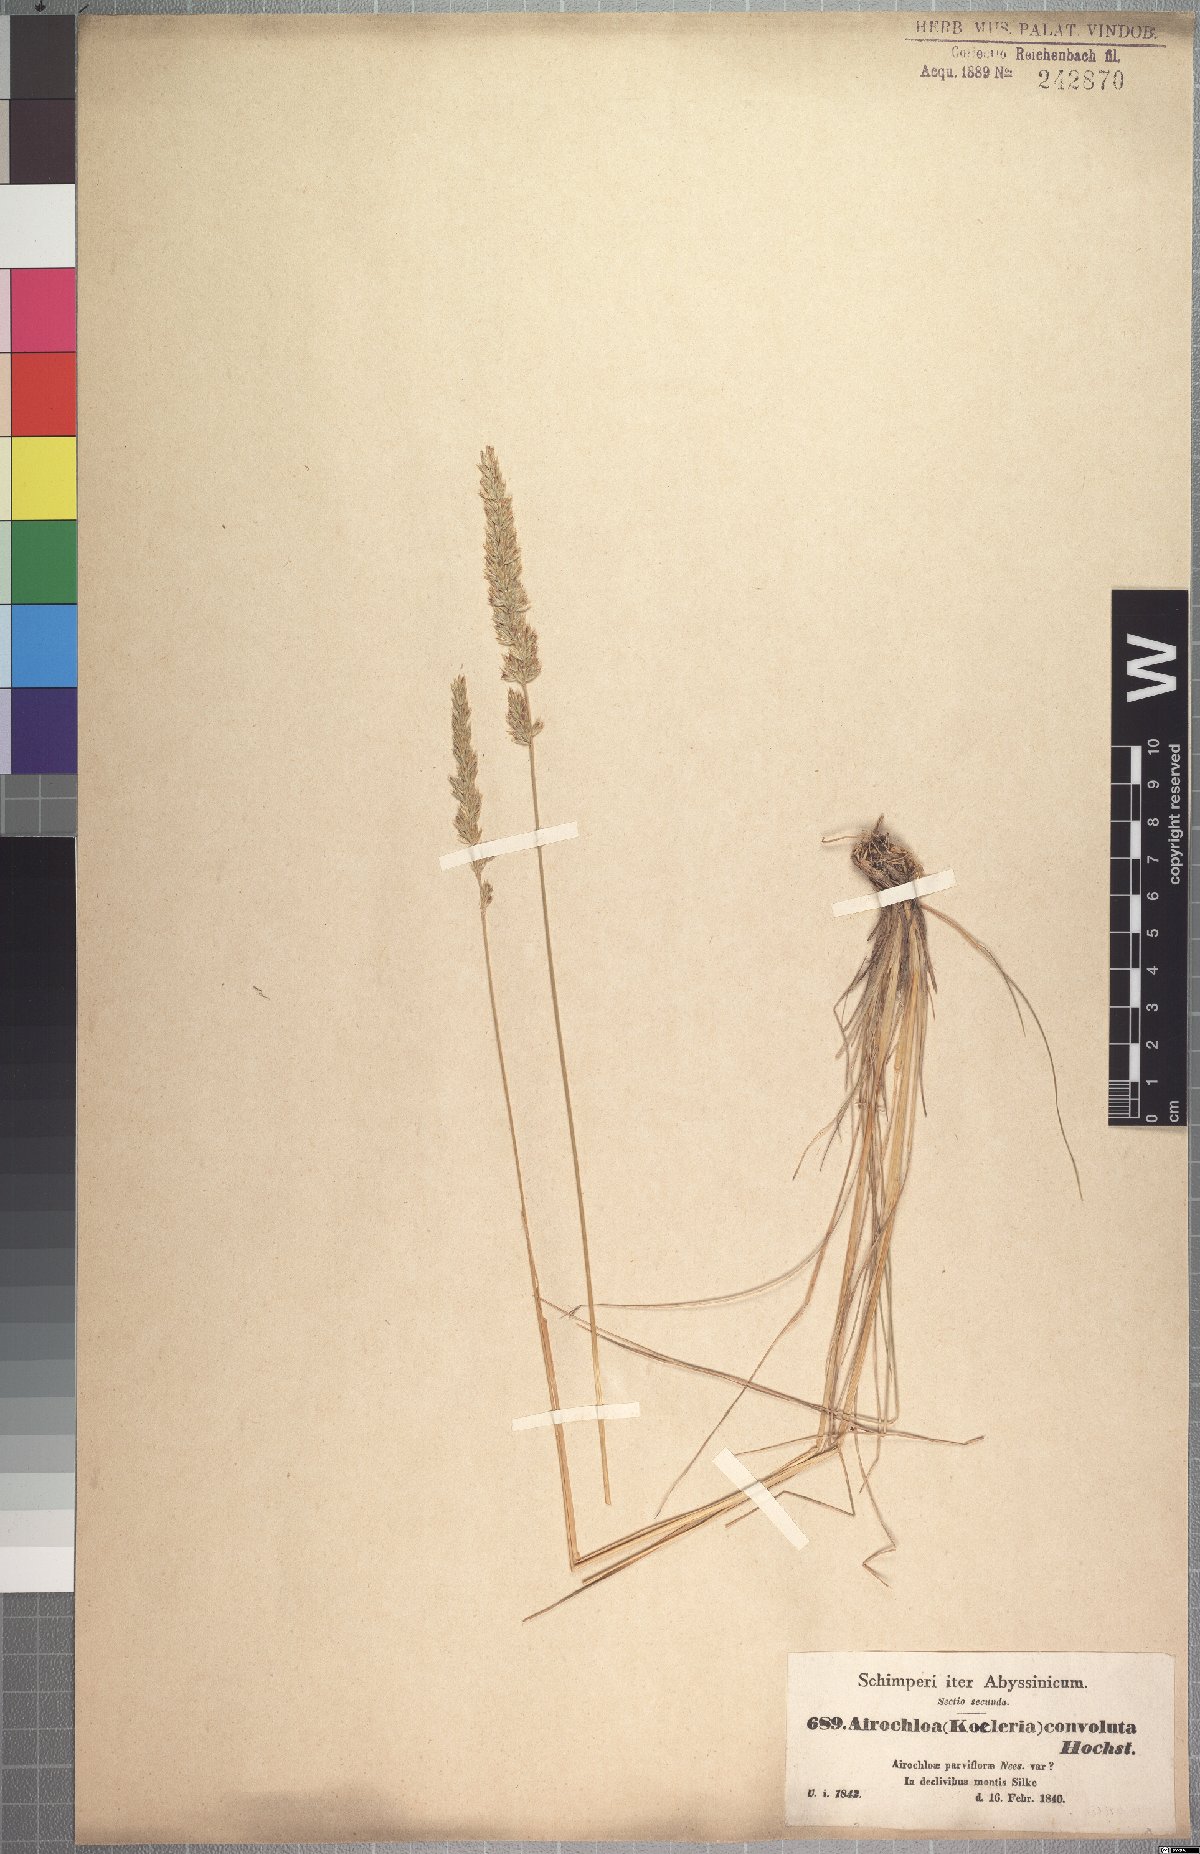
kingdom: Plantae
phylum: Tracheophyta
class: Liliopsida
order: Poales
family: Poaceae
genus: Koeleria
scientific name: Koeleria capensis
